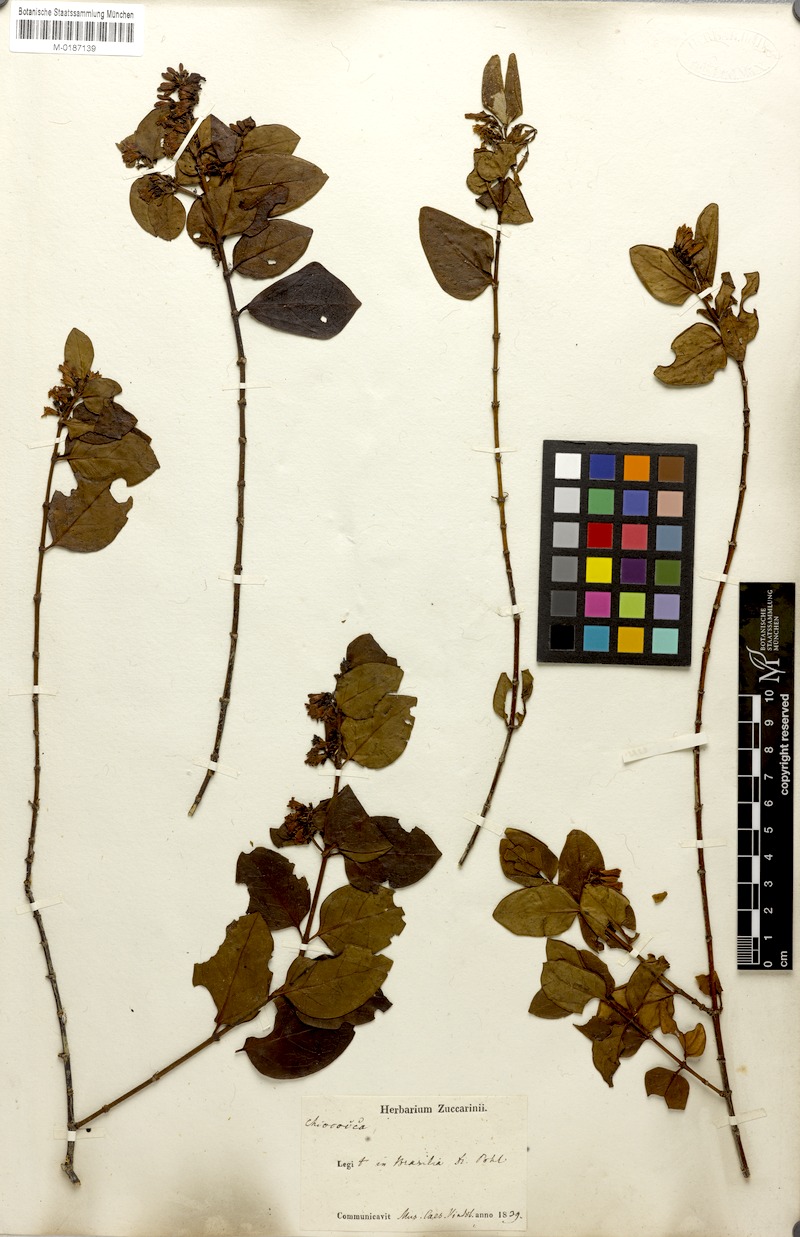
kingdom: Plantae
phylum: Tracheophyta
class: Magnoliopsida
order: Gentianales
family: Rubiaceae
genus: Chiococca
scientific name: Chiococca alba
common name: Snowberry
